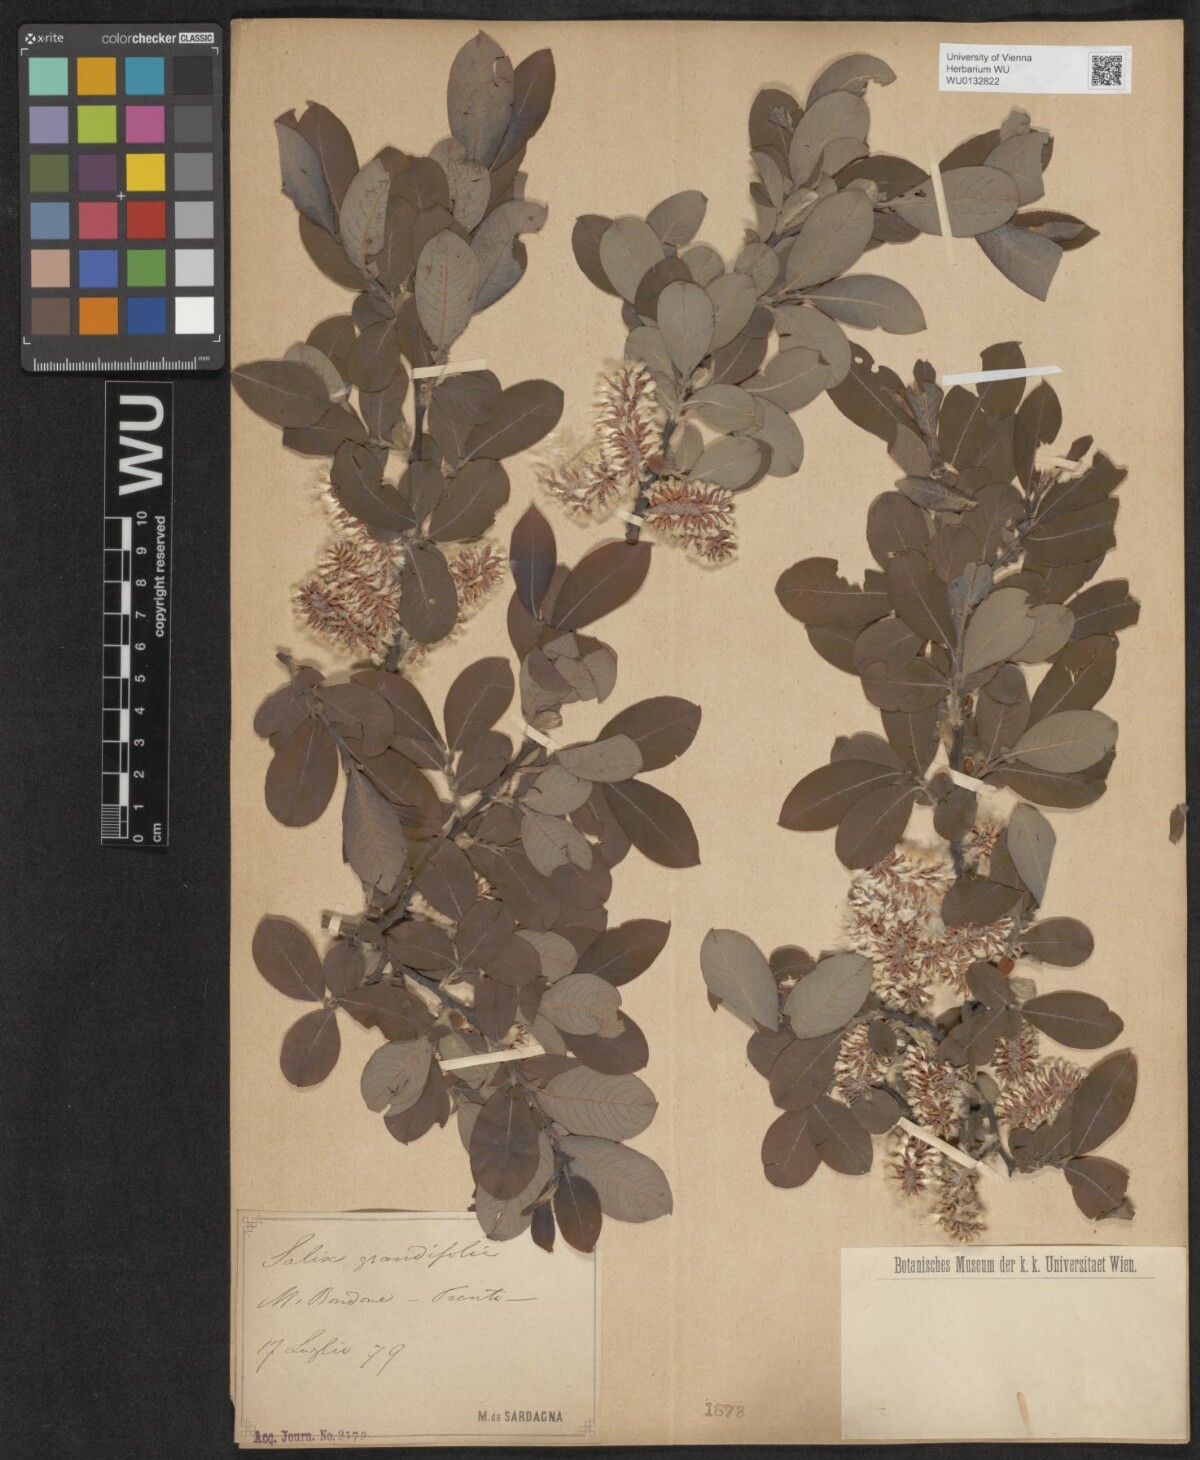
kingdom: Plantae
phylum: Tracheophyta
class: Magnoliopsida
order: Malpighiales
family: Salicaceae
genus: Salix
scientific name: Salix appendiculata
